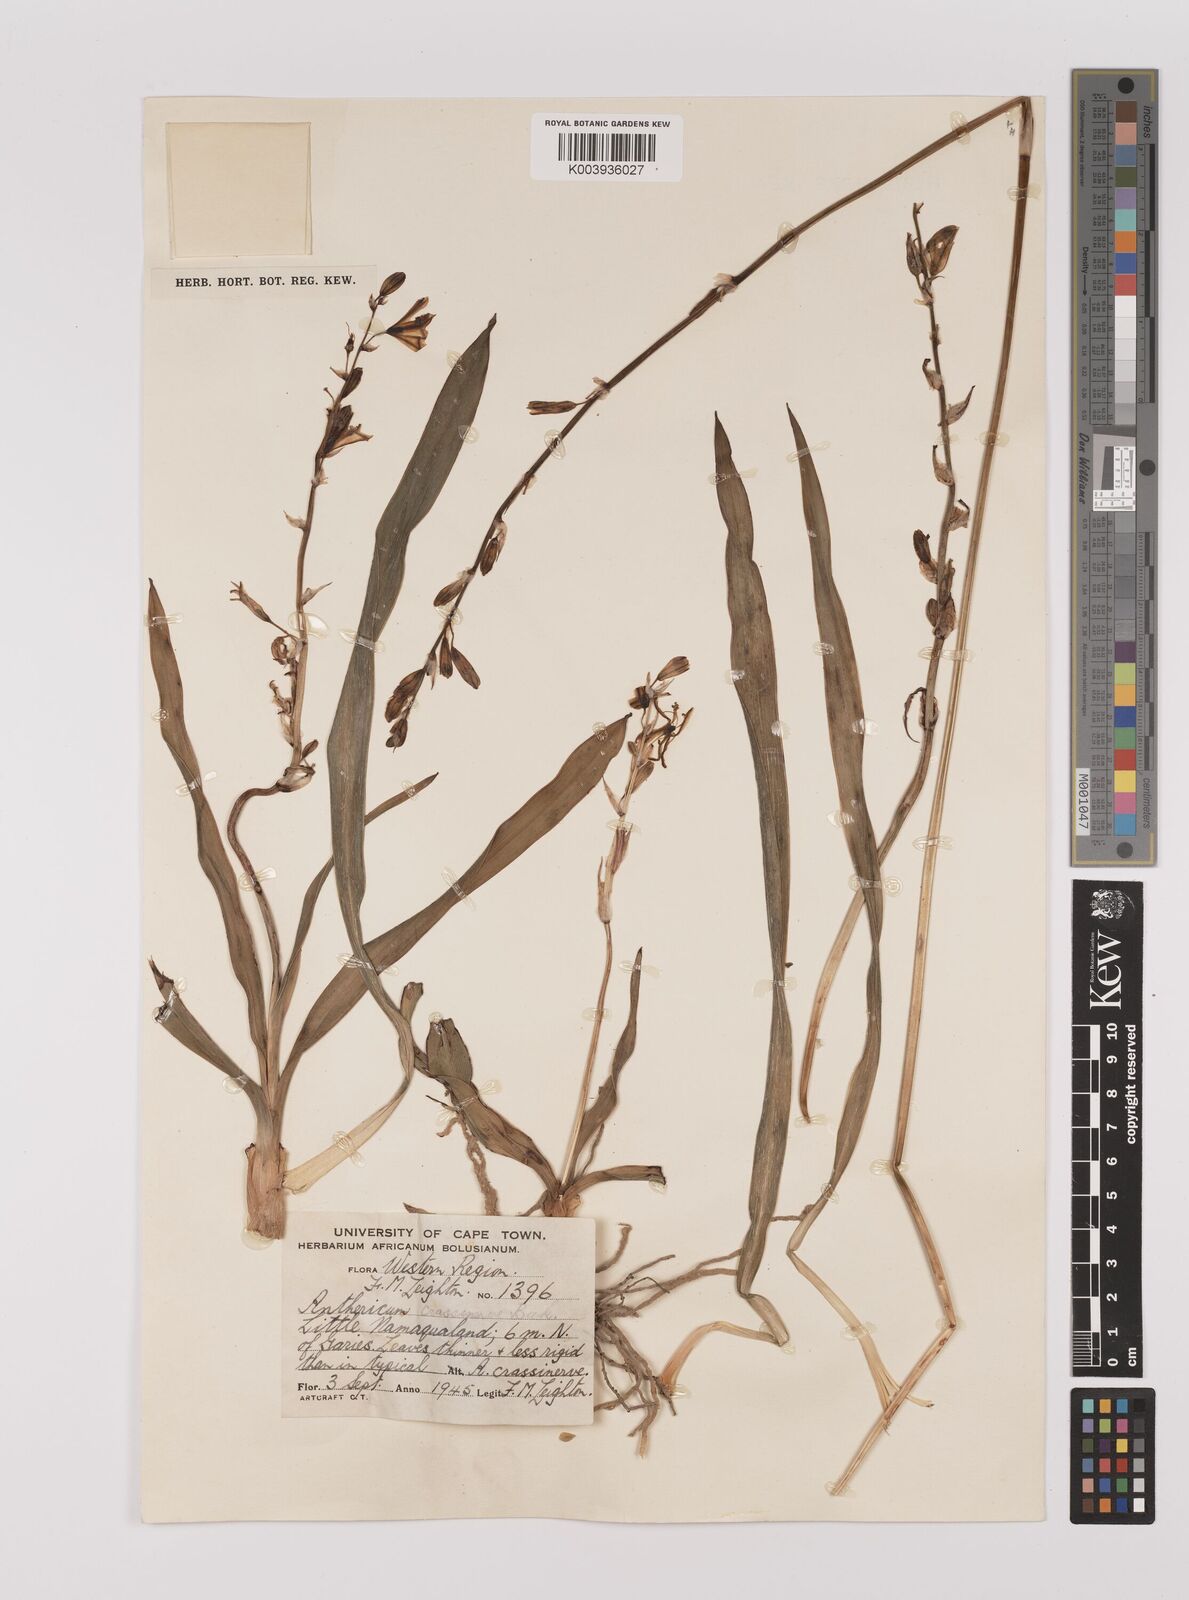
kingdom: Plantae
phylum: Tracheophyta
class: Liliopsida
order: Asparagales
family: Asparagaceae
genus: Chlorophytum
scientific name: Chlorophytum crassinerve
